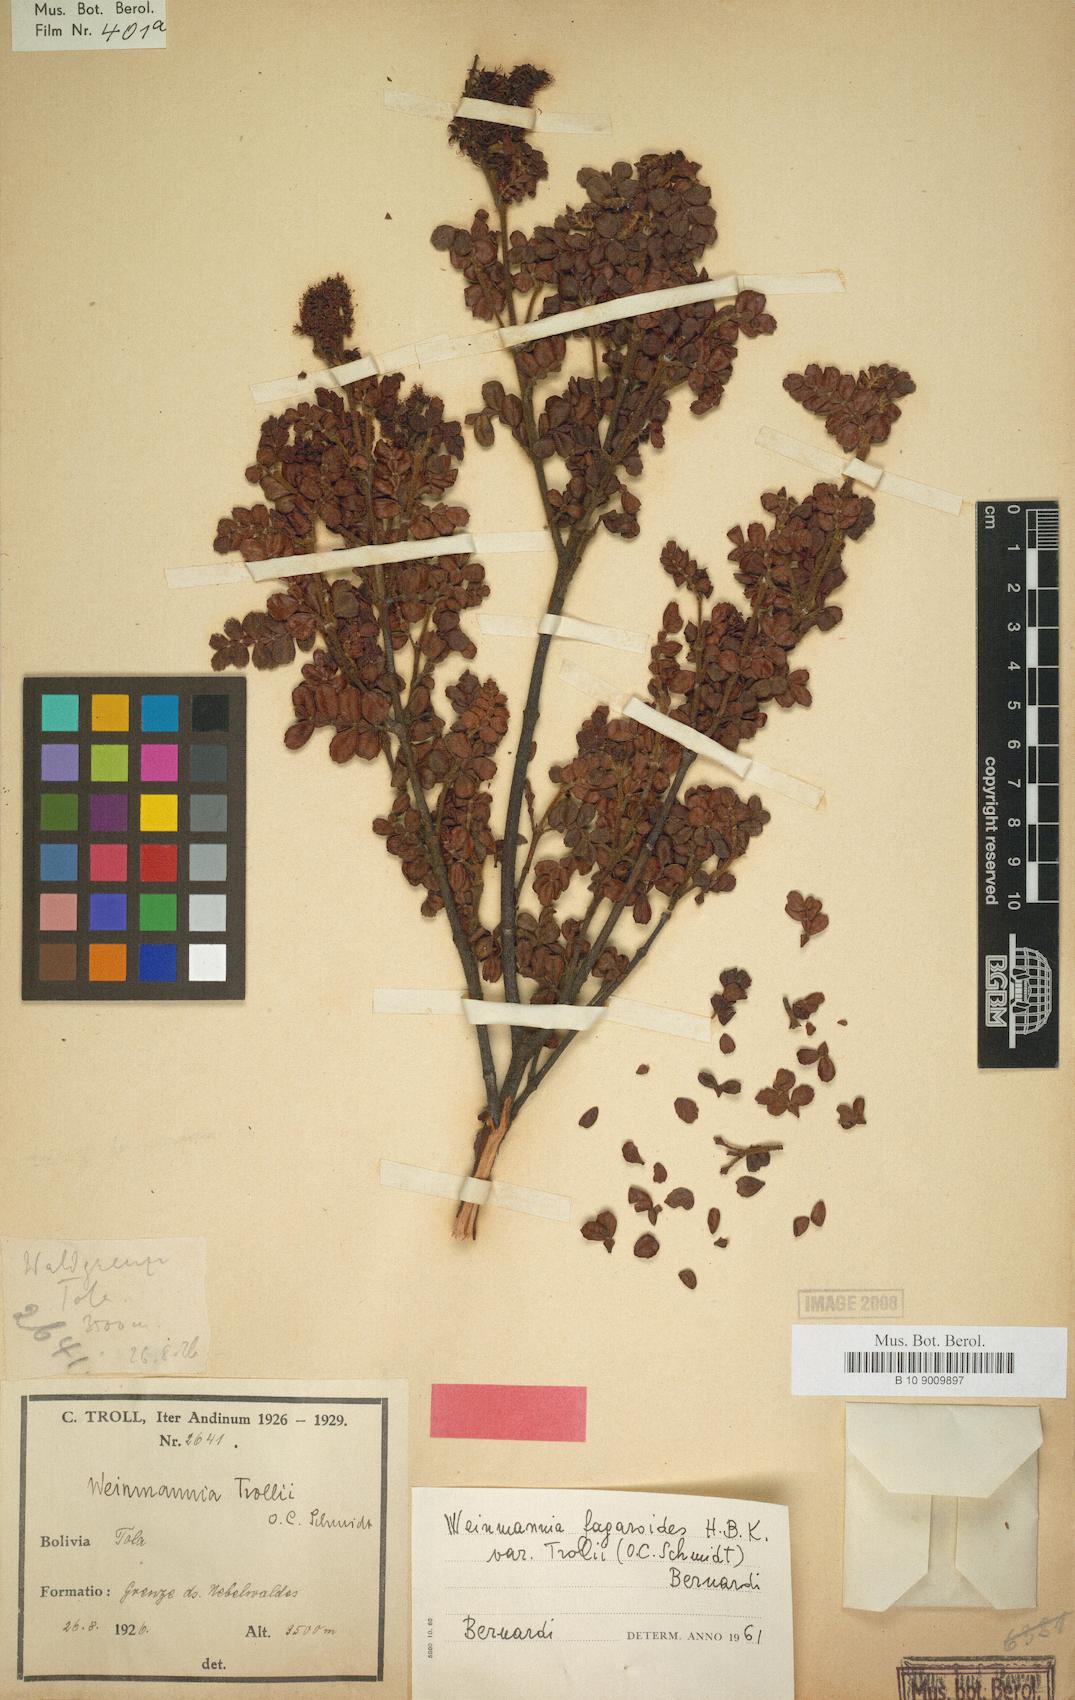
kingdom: Plantae
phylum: Tracheophyta
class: Magnoliopsida
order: Oxalidales
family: Cunoniaceae
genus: Weinmannia
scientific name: Weinmannia fagaroides
